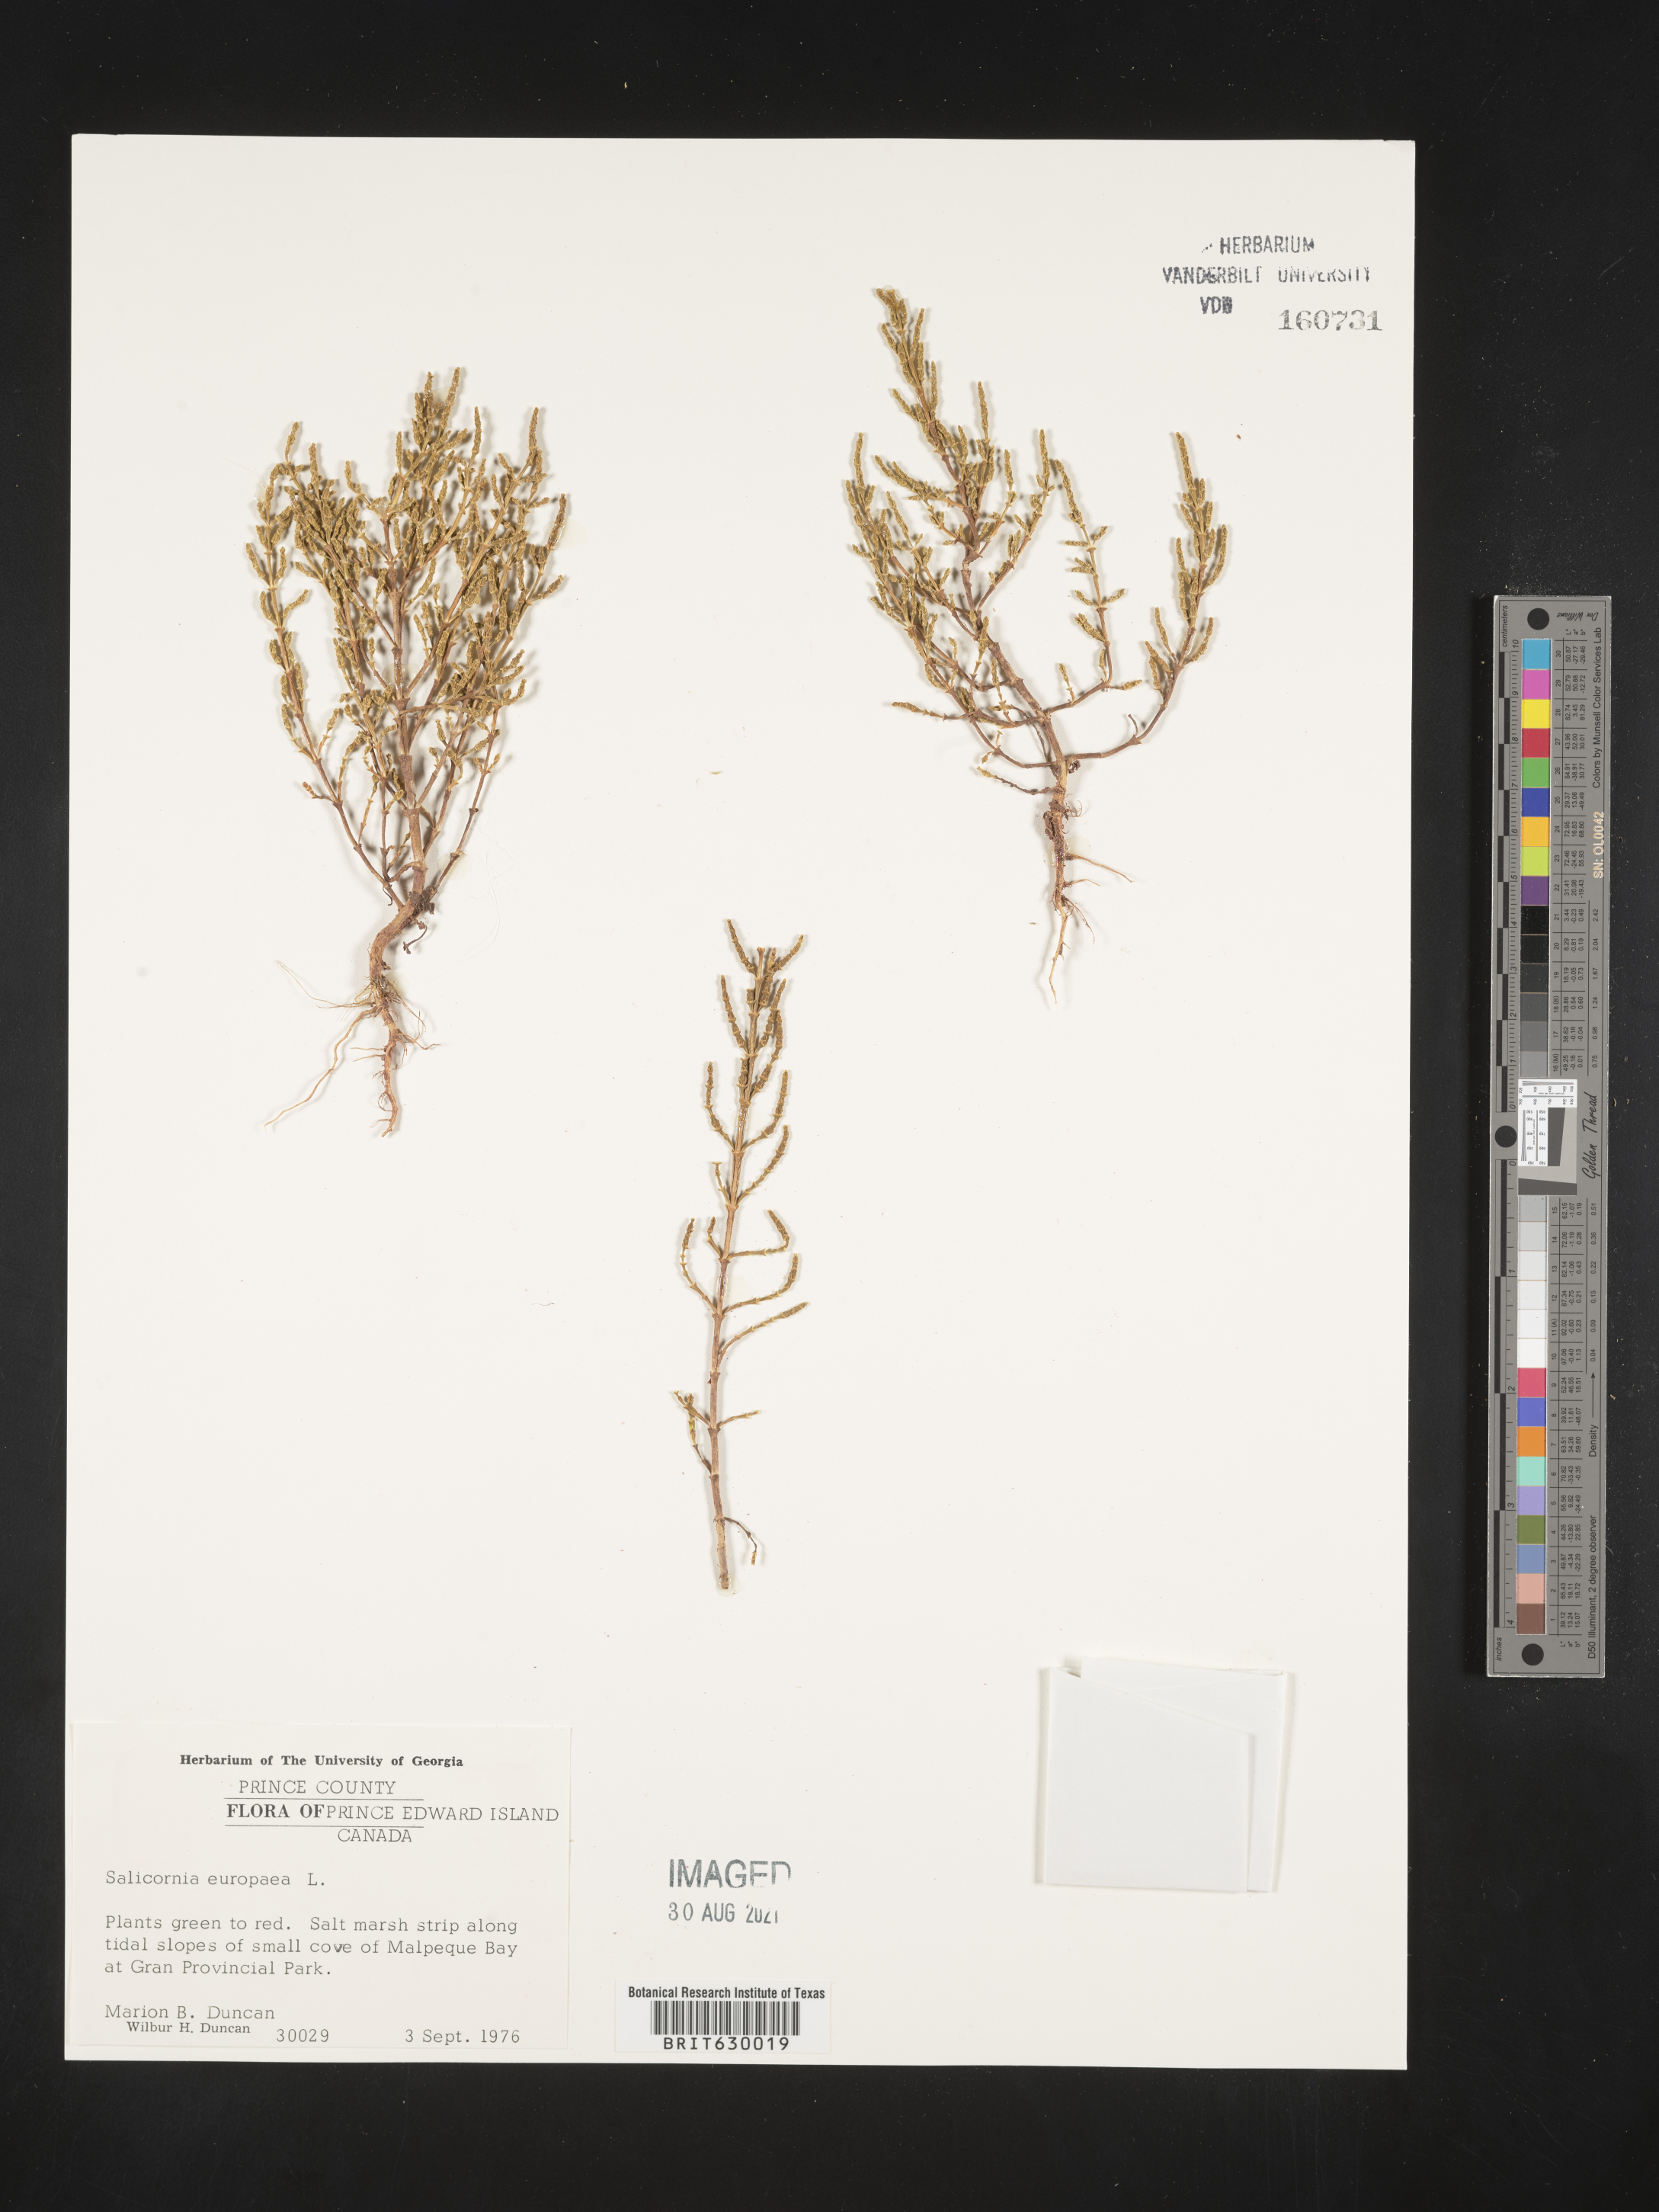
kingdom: Plantae
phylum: Tracheophyta
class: Magnoliopsida
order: Caryophyllales
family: Amaranthaceae
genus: Salicornia
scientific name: Salicornia europaea
